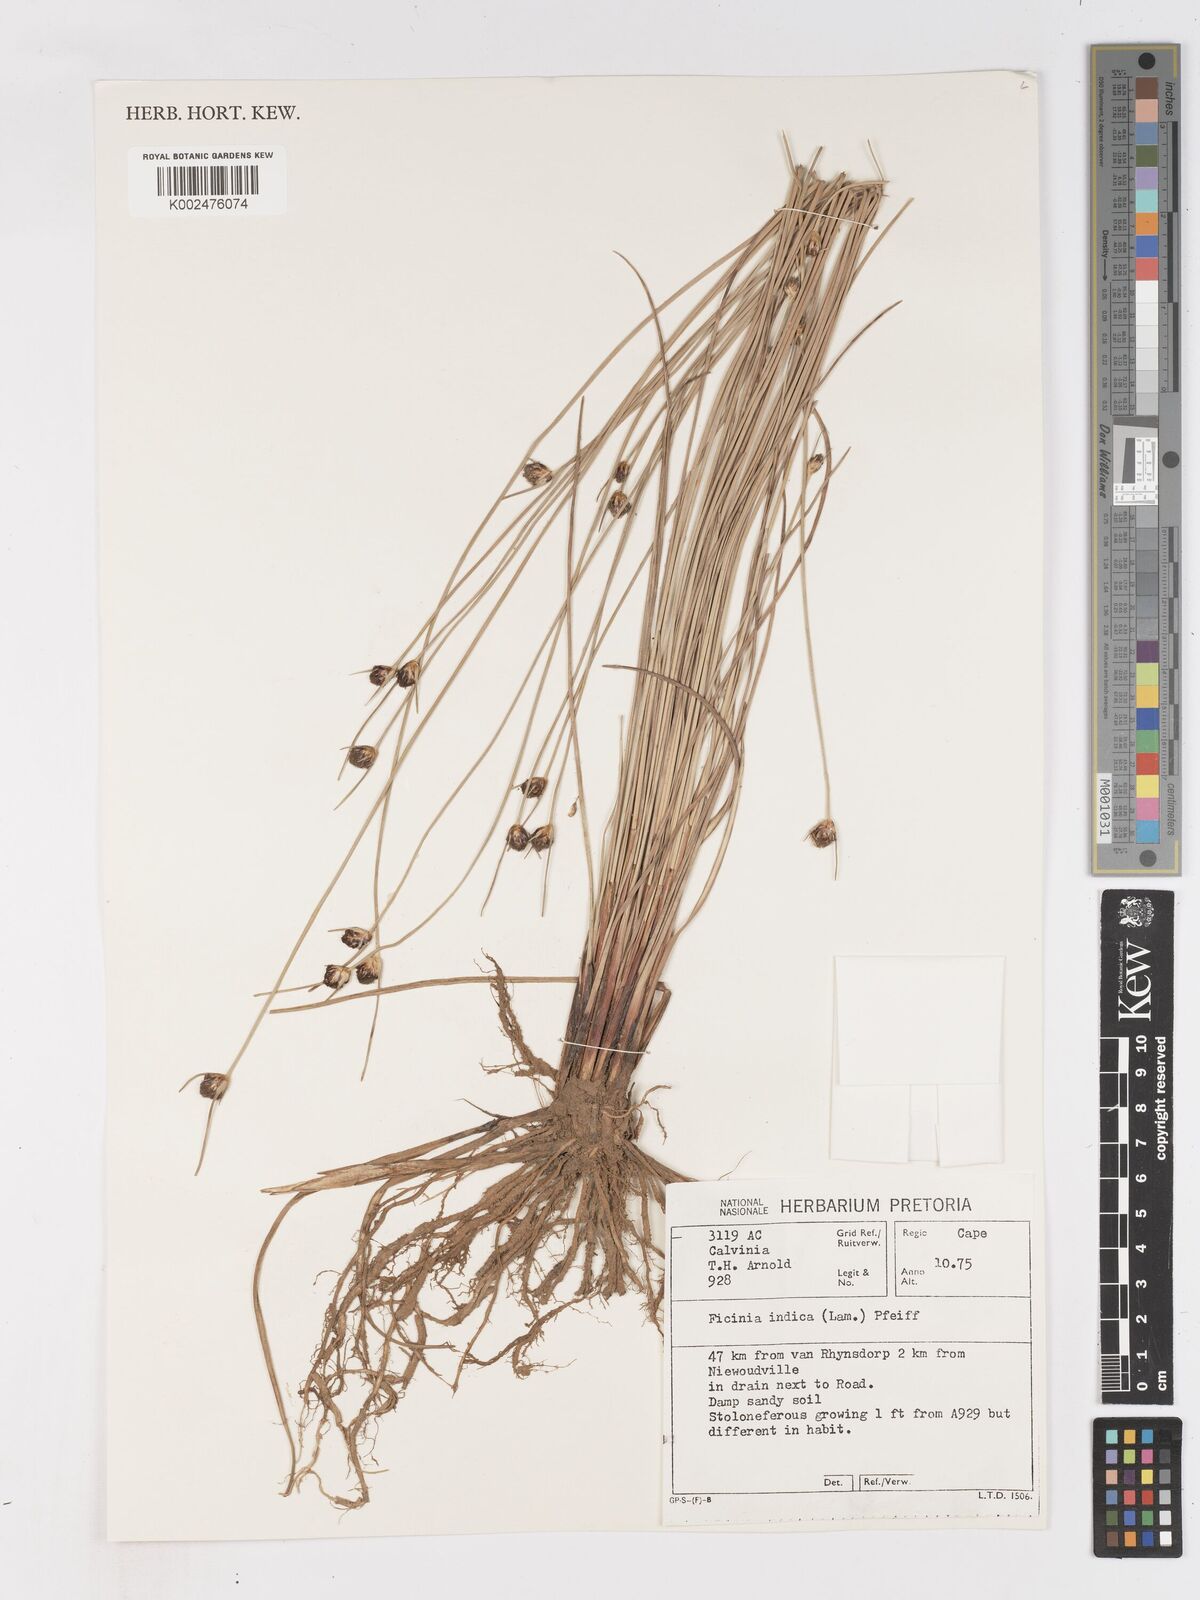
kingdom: Plantae
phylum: Tracheophyta
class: Liliopsida
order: Poales
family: Cyperaceae
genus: Ficinia
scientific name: Ficinia indica
